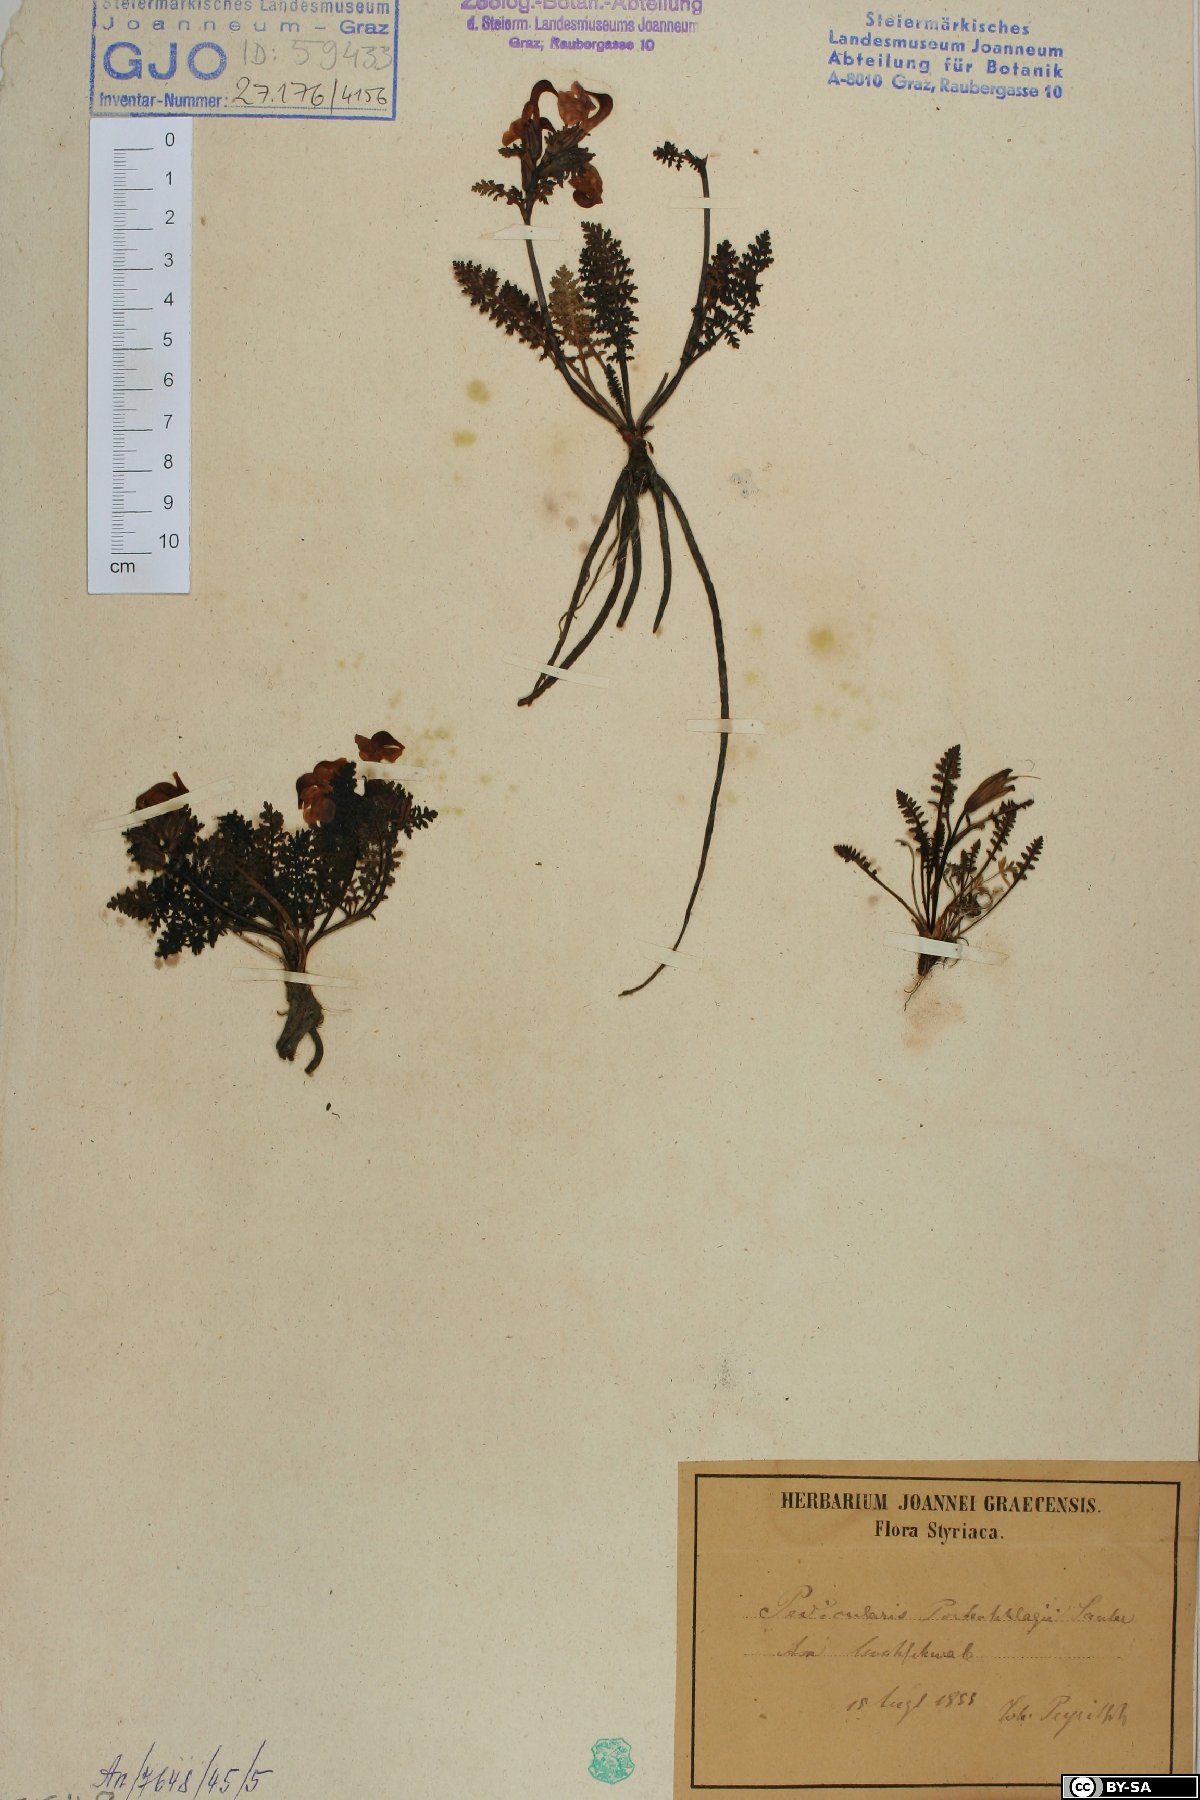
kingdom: Plantae
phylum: Tracheophyta
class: Magnoliopsida
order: Lamiales
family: Orobanchaceae
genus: Pedicularis
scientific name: Pedicularis portenschlagii
